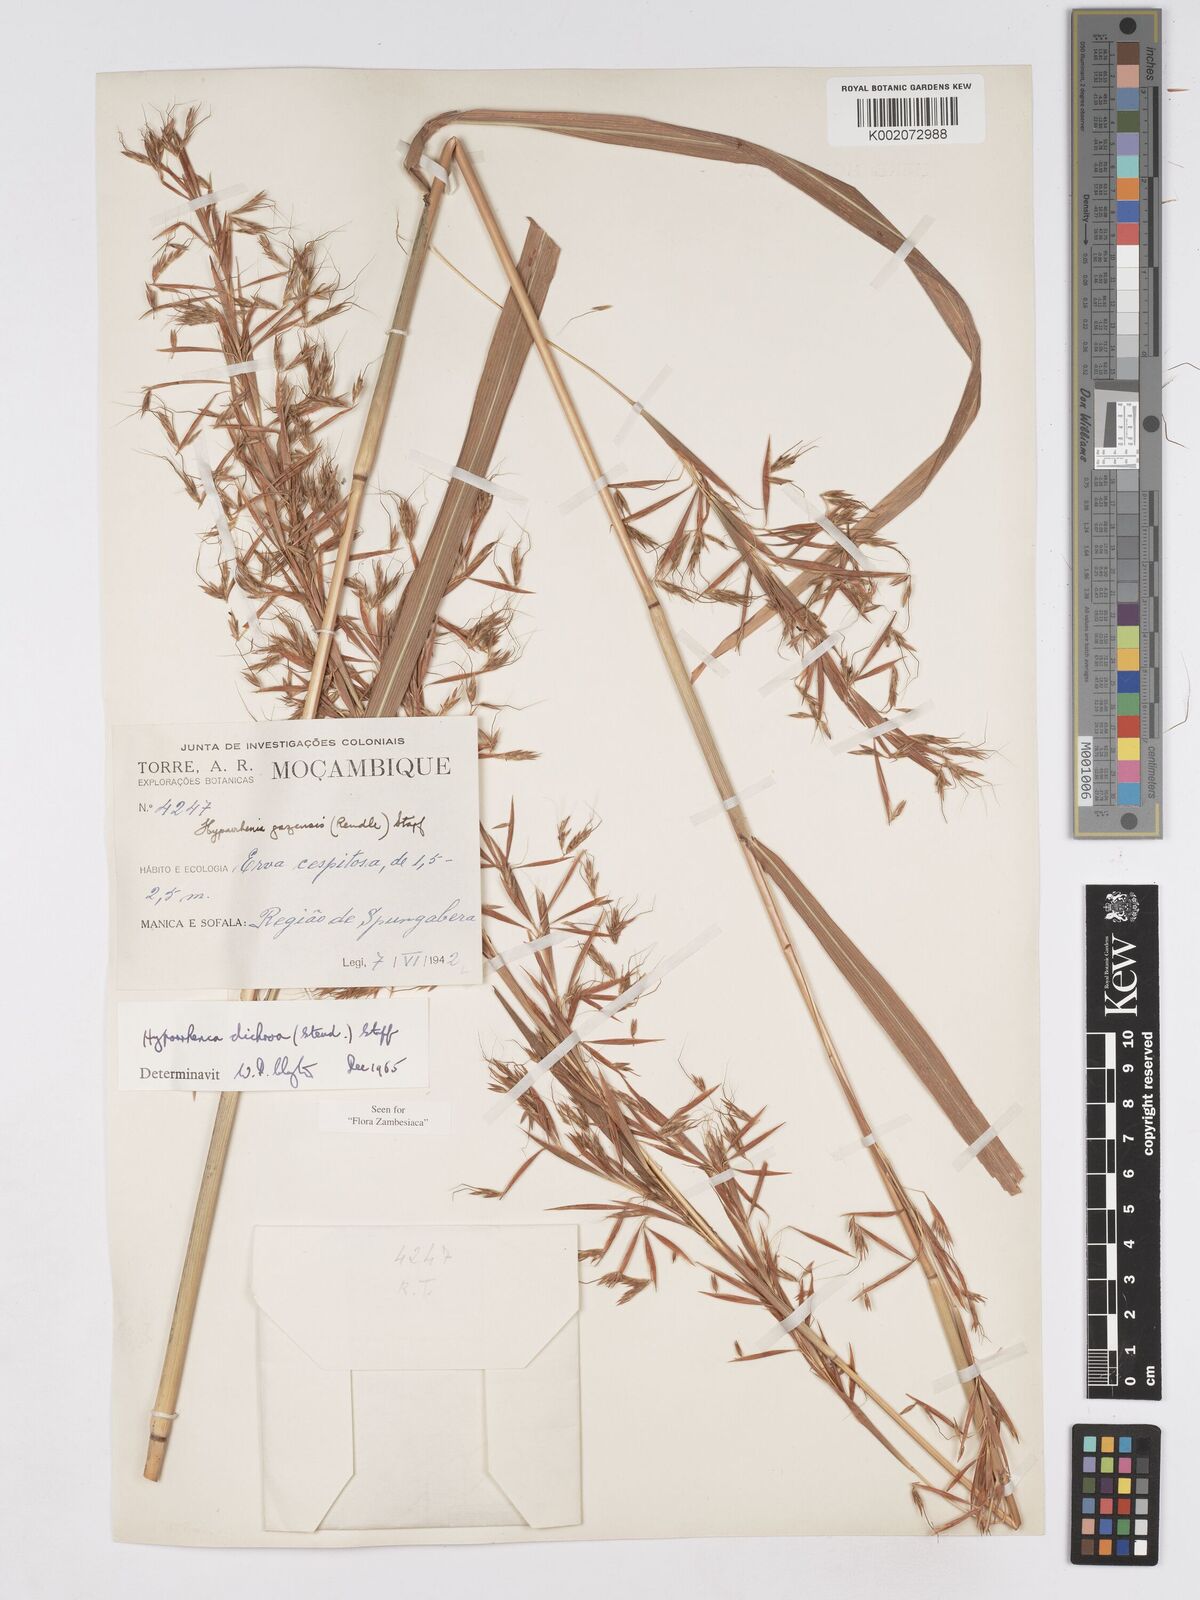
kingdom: Plantae
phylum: Tracheophyta
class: Liliopsida
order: Poales
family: Poaceae
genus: Hyparrhenia
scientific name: Hyparrhenia dichroa
